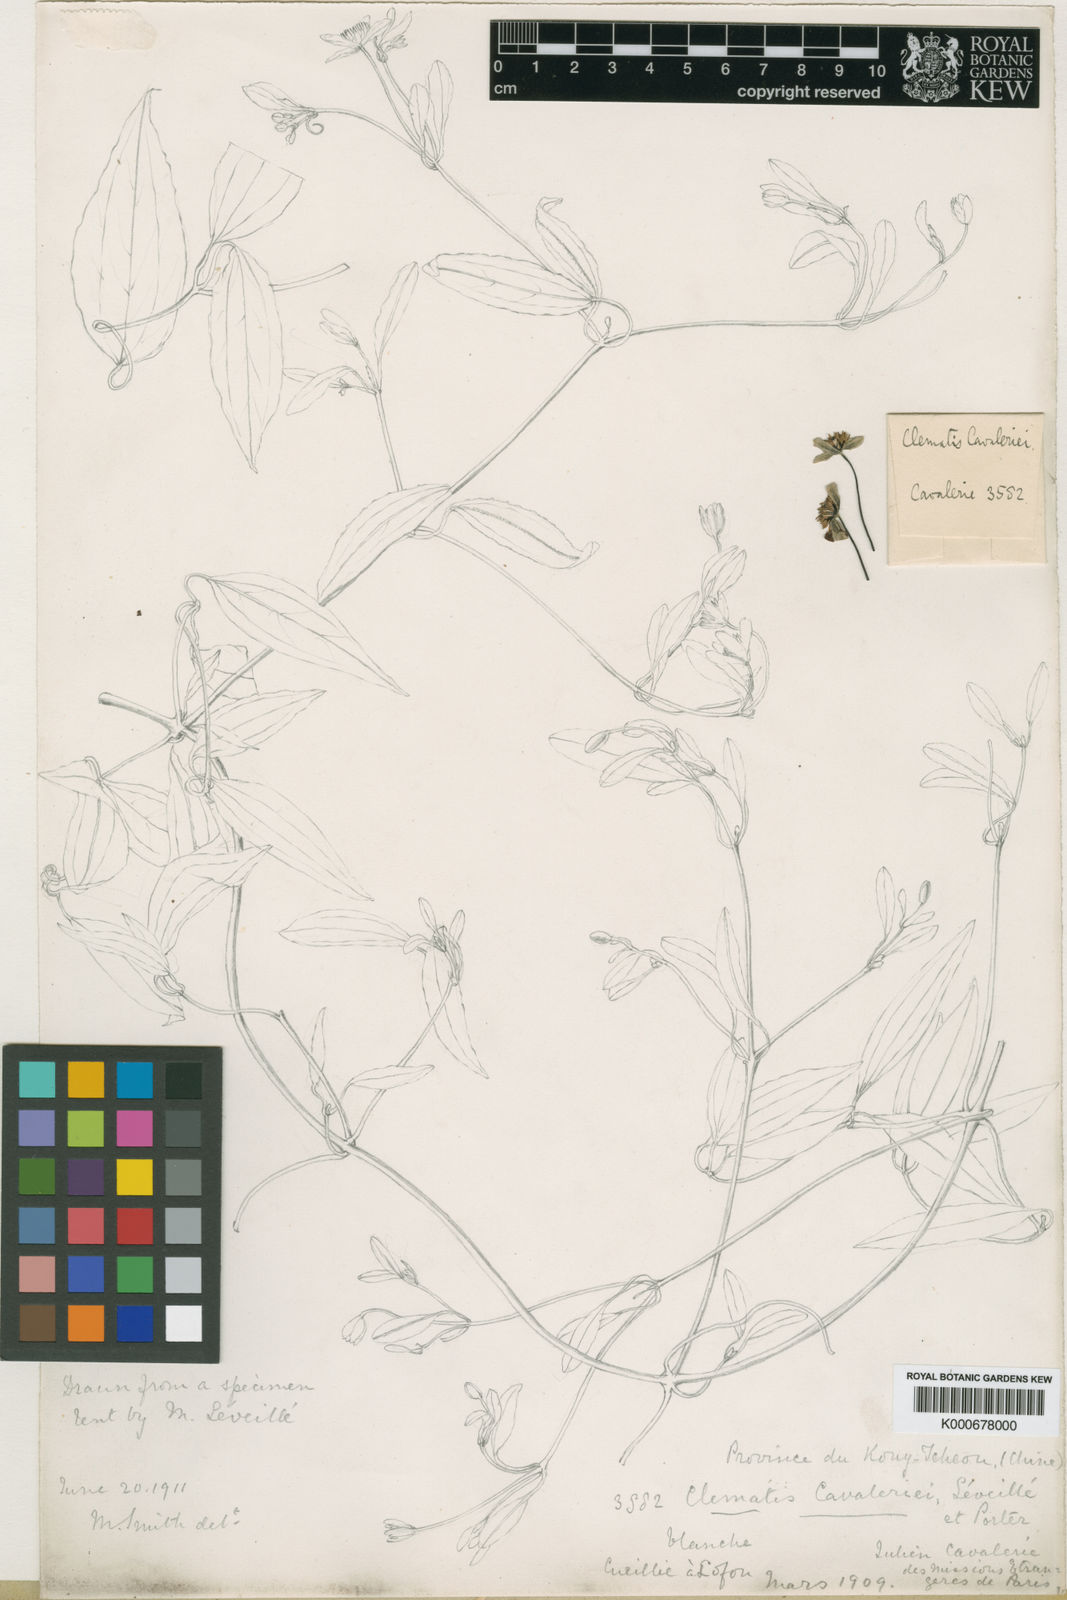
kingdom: Plantae
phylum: Tracheophyta
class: Magnoliopsida
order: Ranunculales
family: Ranunculaceae
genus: Clematis
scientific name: Clematis chinensis
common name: Chinese clematis
